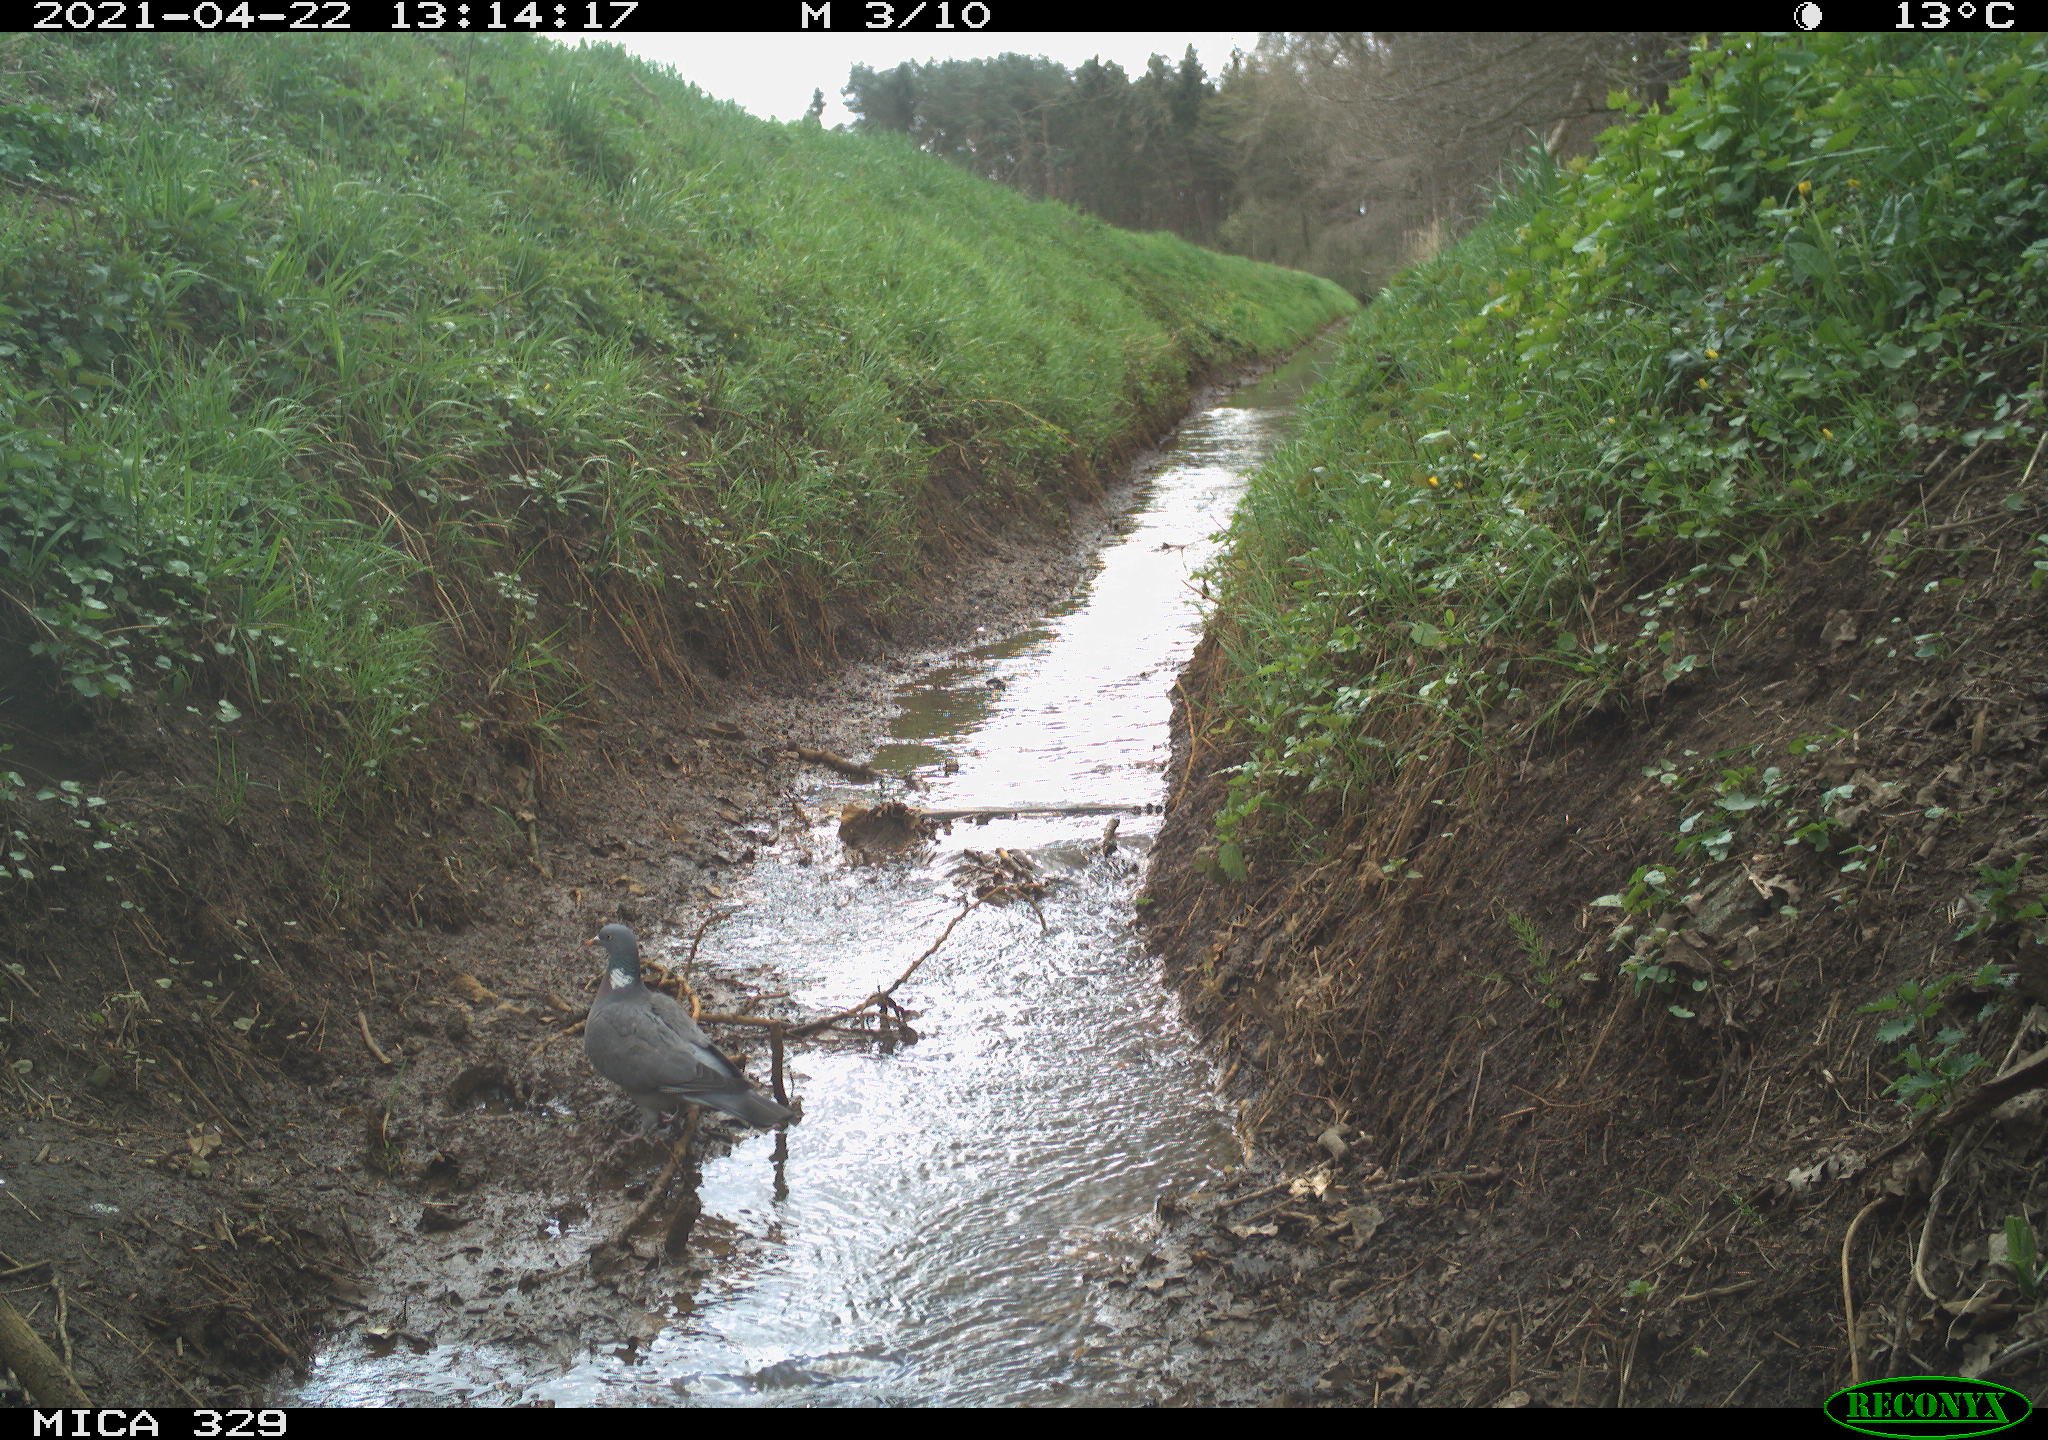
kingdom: Animalia
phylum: Chordata
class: Aves
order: Columbiformes
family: Columbidae
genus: Columba
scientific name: Columba palumbus
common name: Common wood pigeon
